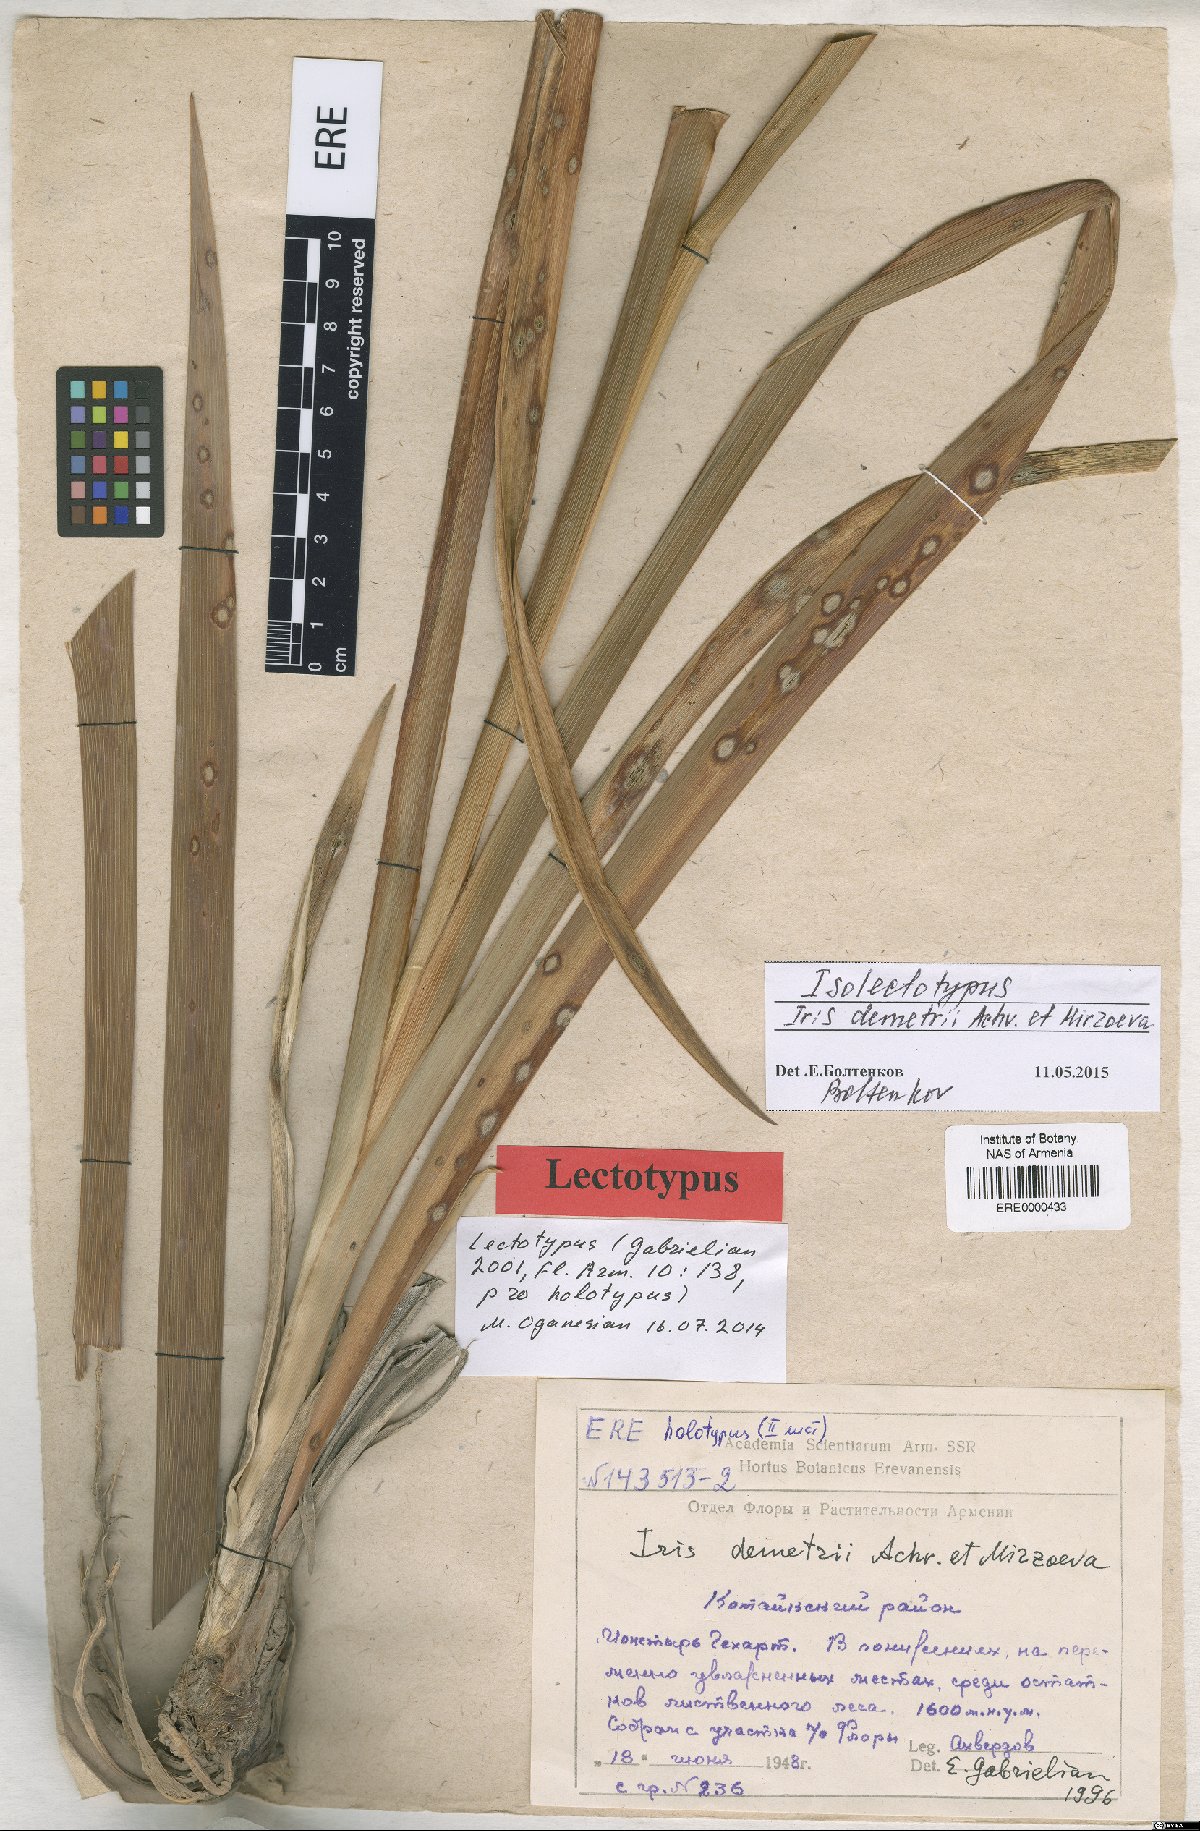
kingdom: Plantae
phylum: Tracheophyta
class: Liliopsida
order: Asparagales
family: Iridaceae
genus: Iris
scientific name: Iris spuria
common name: Blue iris
